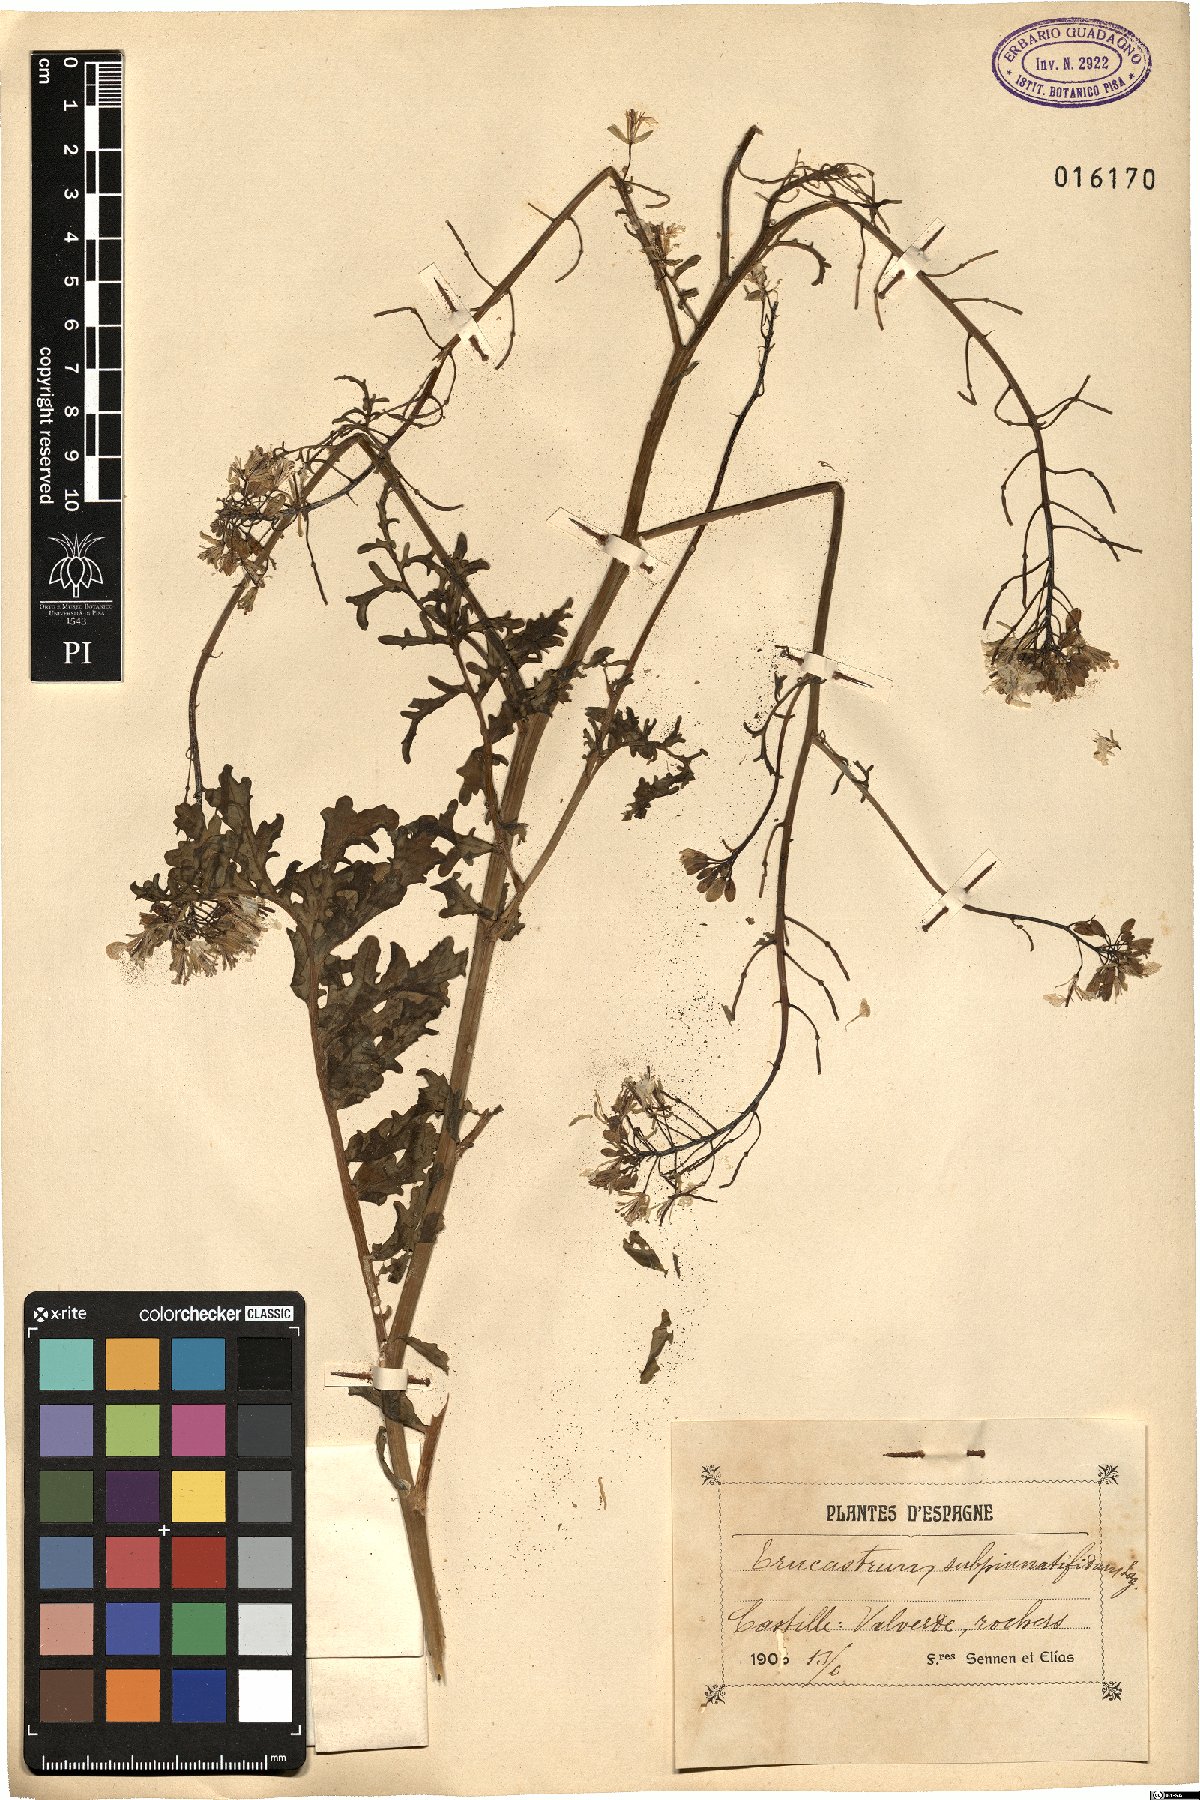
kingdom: Plantae
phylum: Tracheophyta
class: Magnoliopsida
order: Brassicales
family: Brassicaceae
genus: Erucastrum
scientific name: Erucastrum nasturtiifolium
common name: Watercress-leaf rocket
